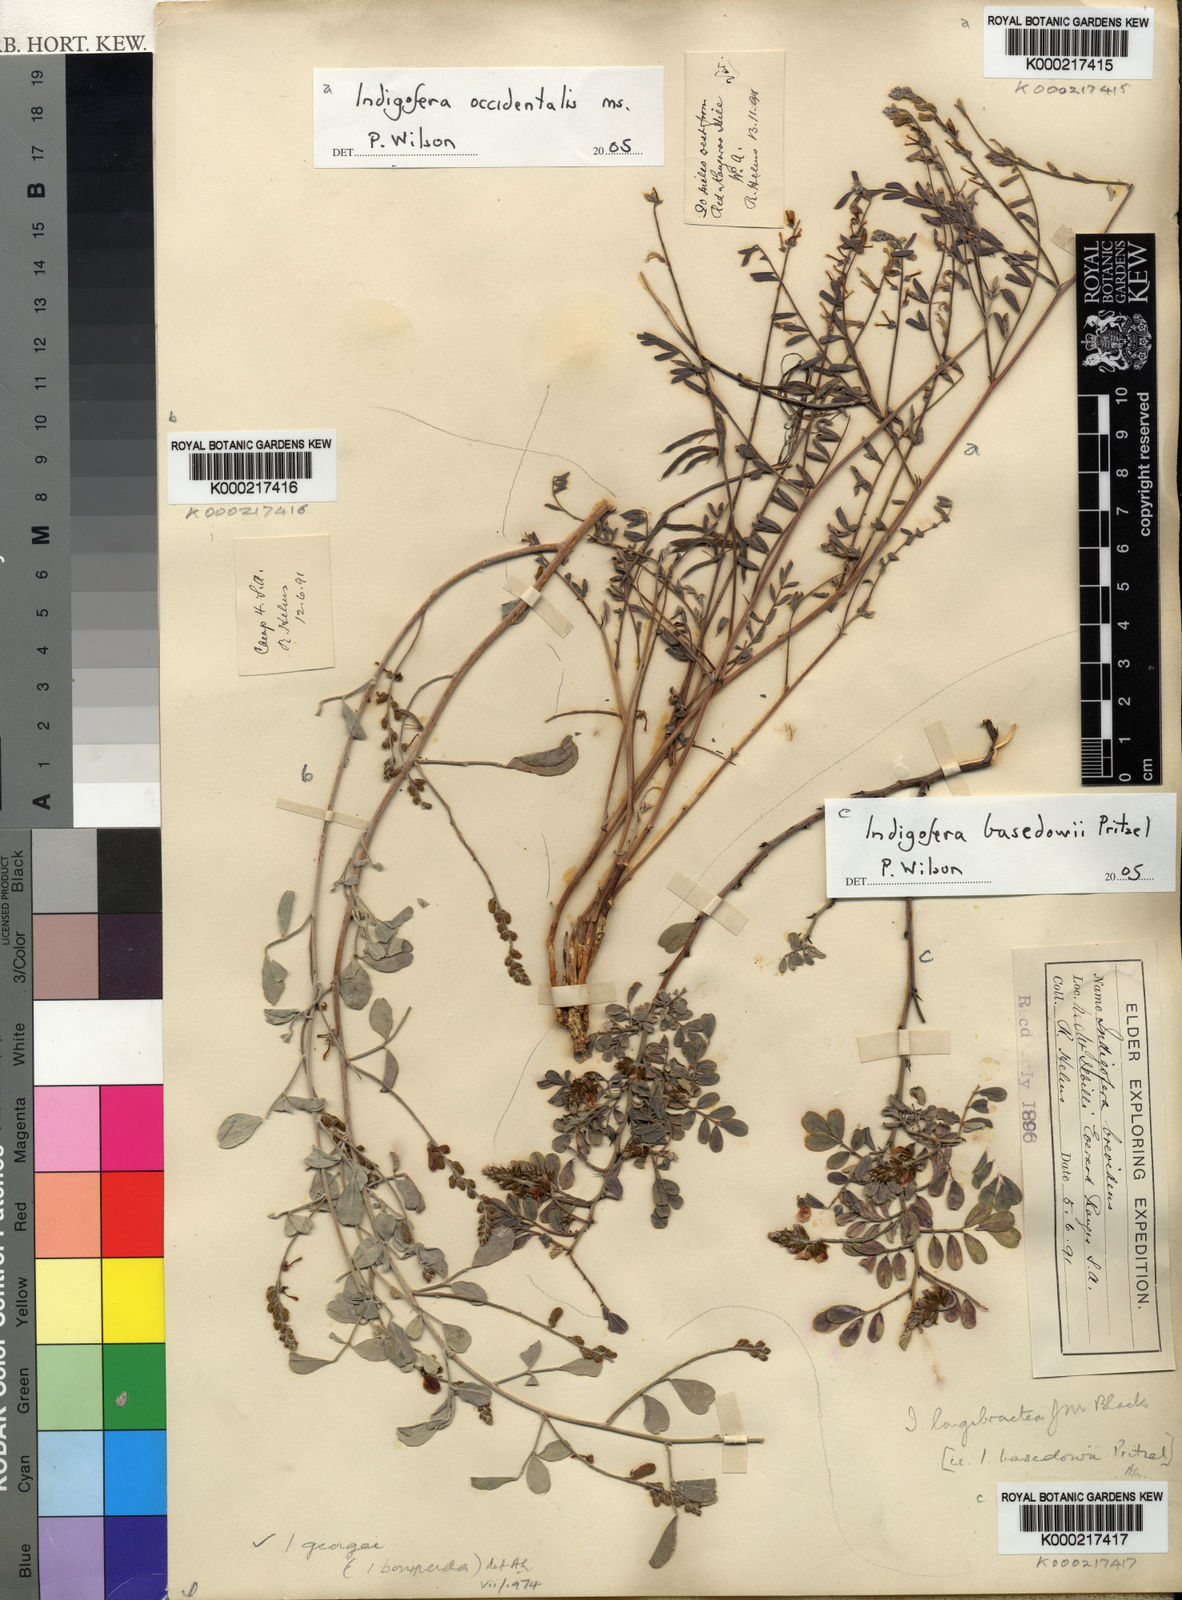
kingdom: Plantae
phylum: Tracheophyta
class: Magnoliopsida
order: Fabales
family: Fabaceae
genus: Indigofera
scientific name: Indigofera georgei
